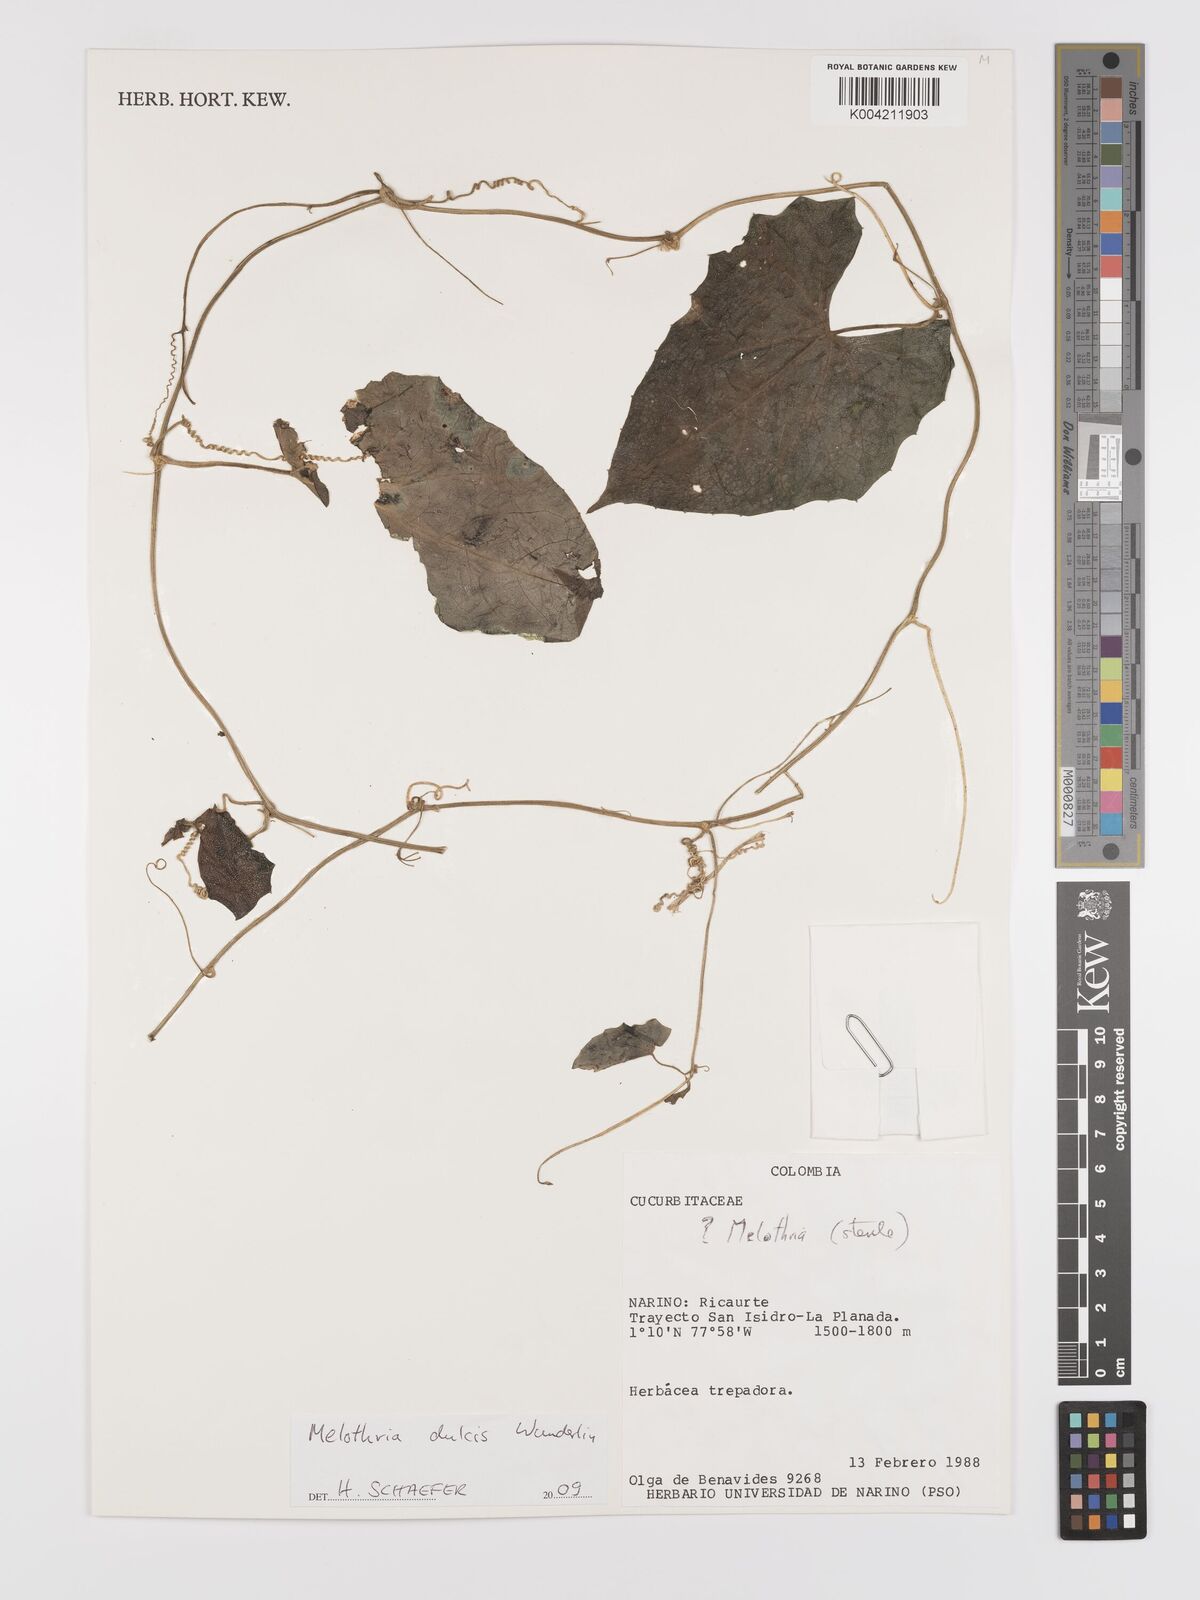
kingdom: Plantae
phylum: Tracheophyta
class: Magnoliopsida
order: Cucurbitales
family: Cucurbitaceae
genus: Melothria
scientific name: Melothria dulcis
